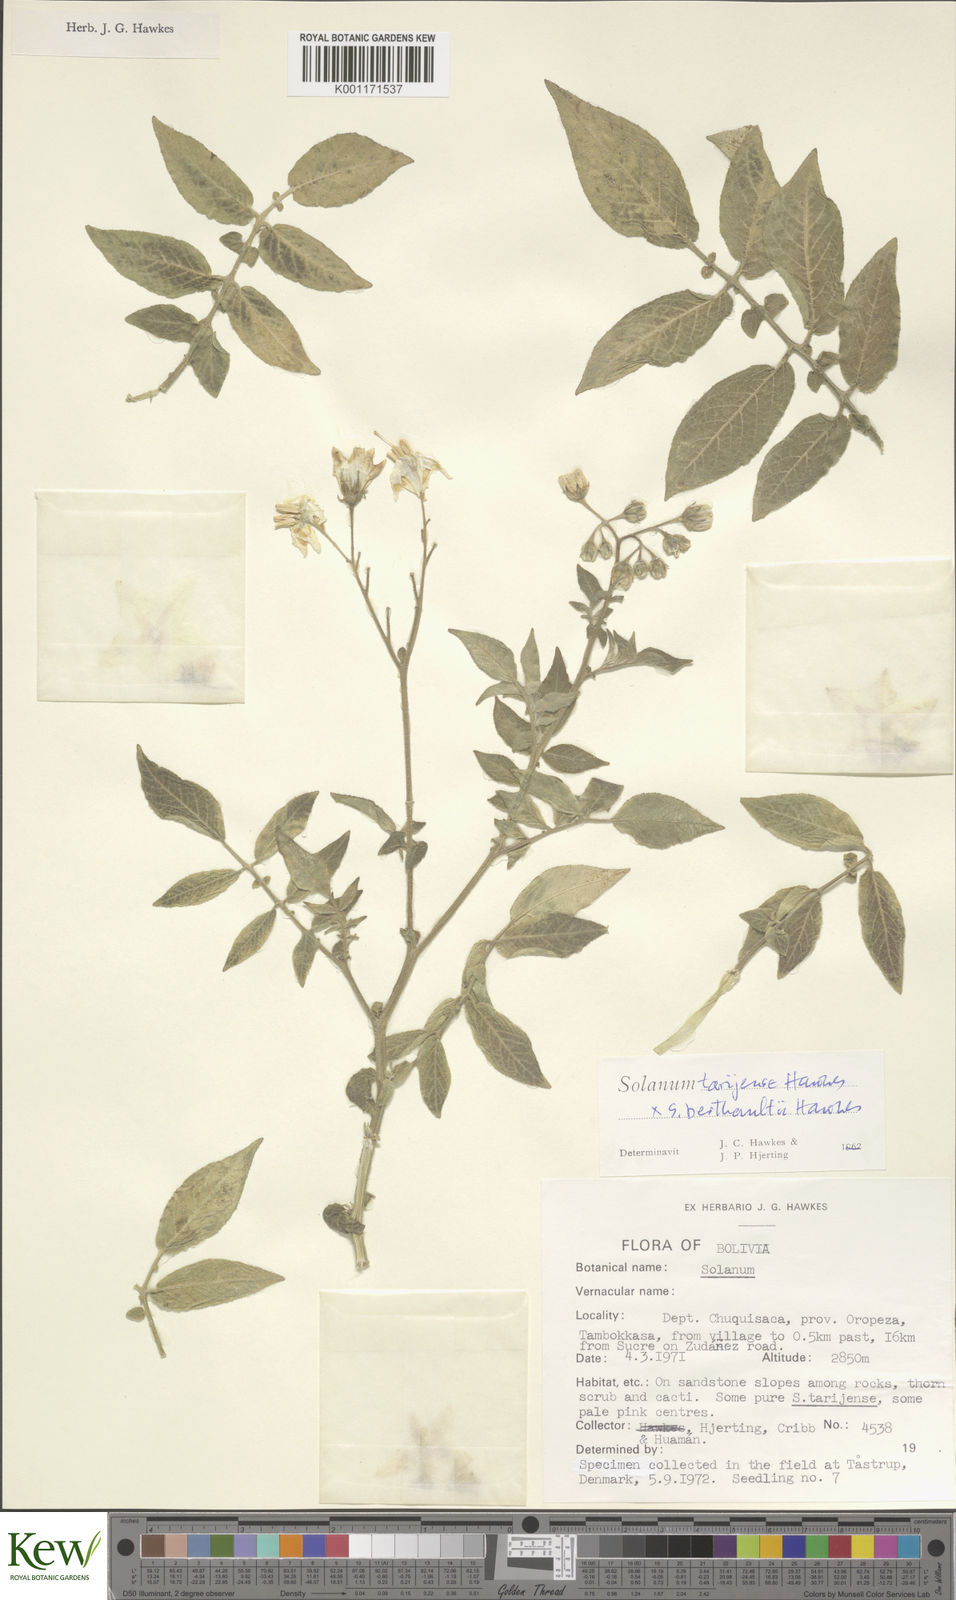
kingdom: Plantae
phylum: Tracheophyta
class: Magnoliopsida
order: Solanales
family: Solanaceae
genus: Solanum
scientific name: Solanum tarijense
